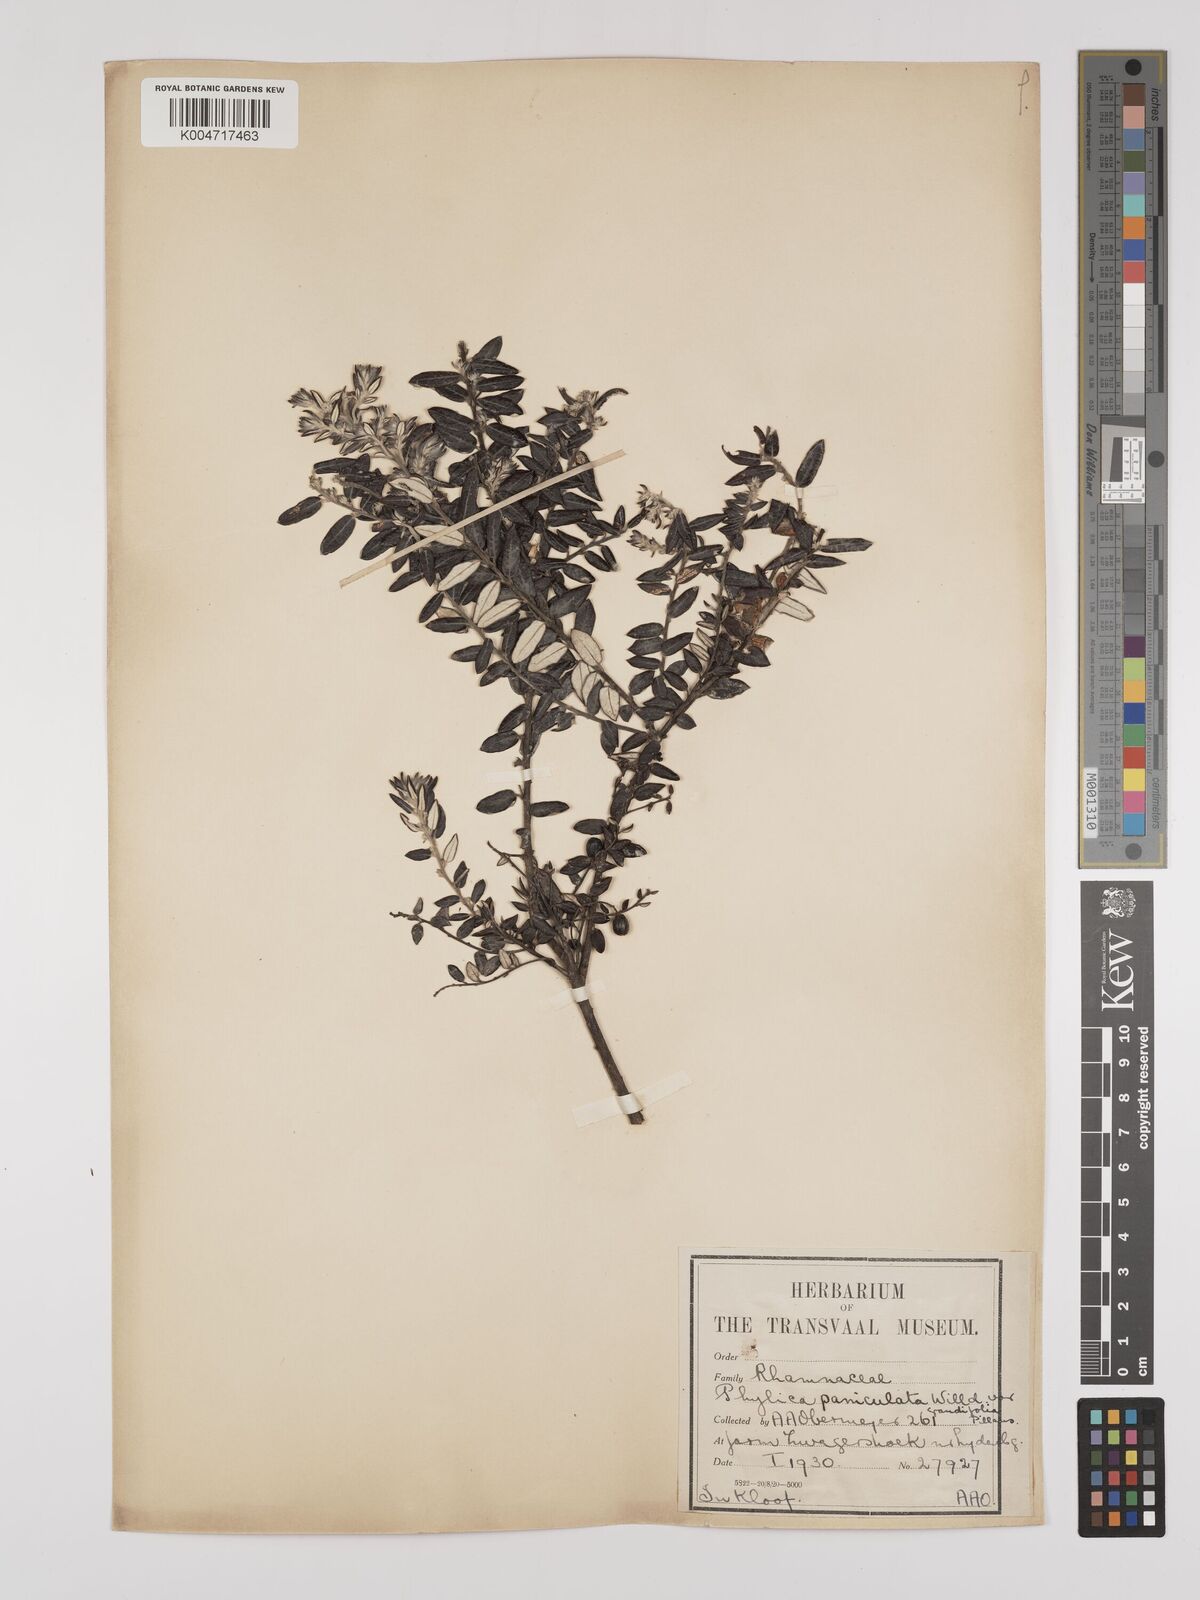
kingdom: Plantae
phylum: Tracheophyta
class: Magnoliopsida
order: Rosales
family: Rhamnaceae
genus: Phylica
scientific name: Phylica paniculata
